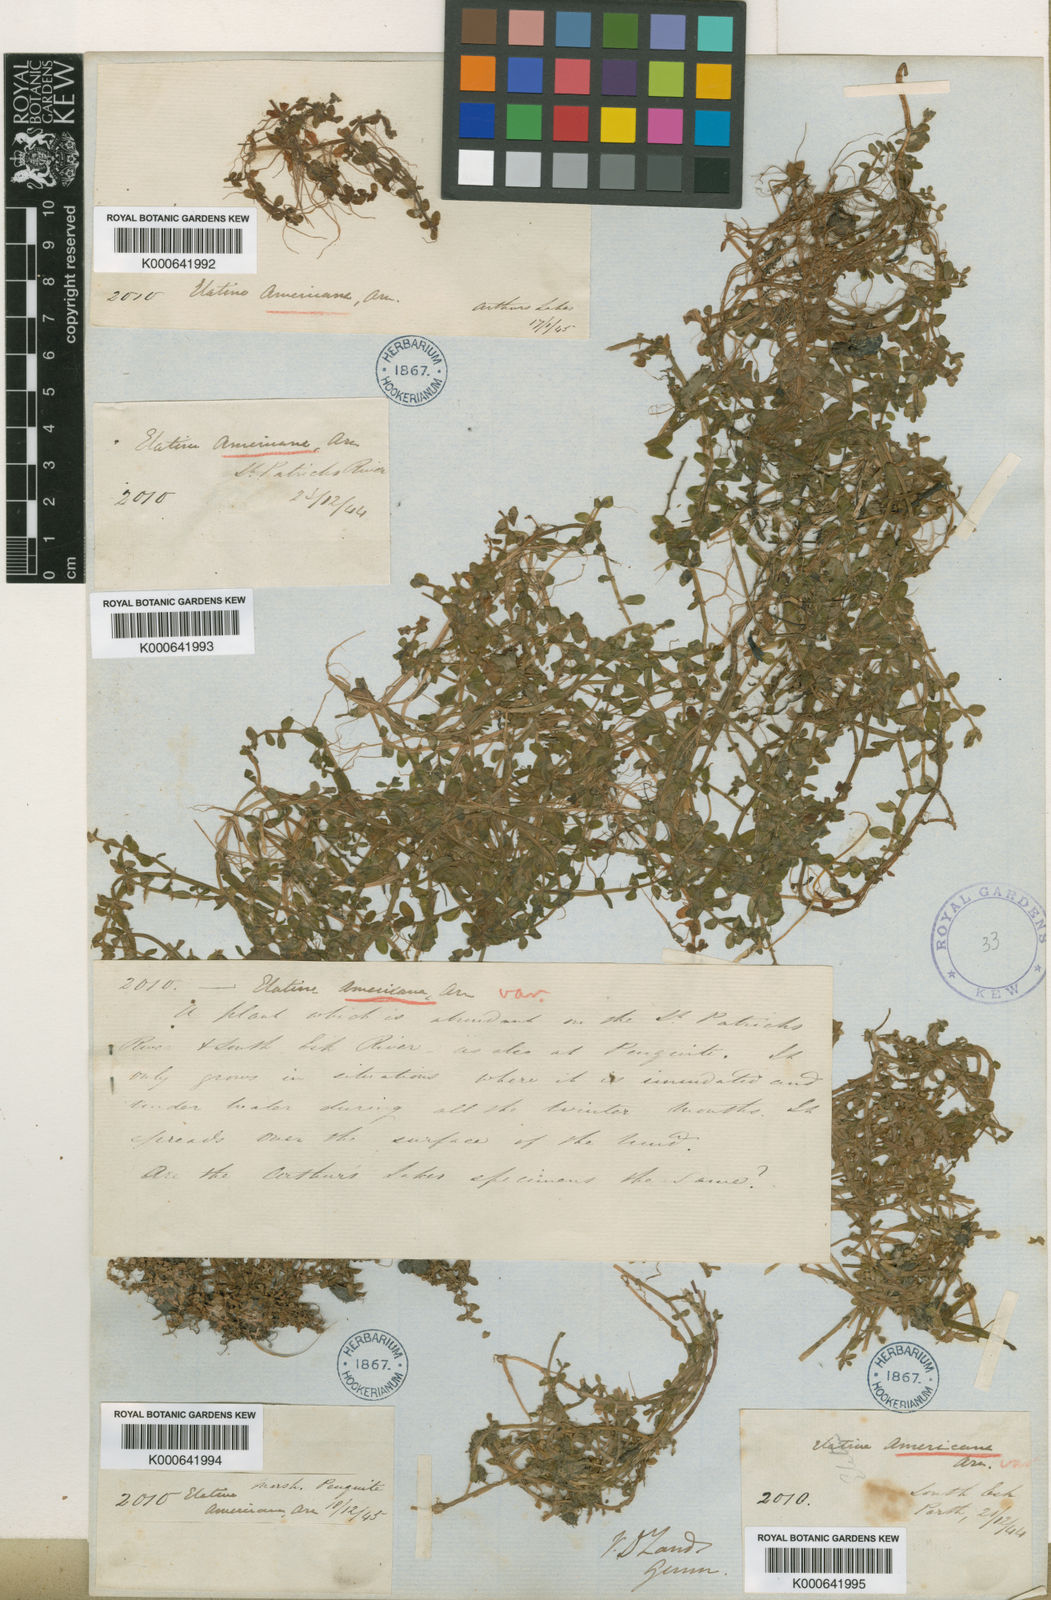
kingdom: Plantae
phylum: Tracheophyta
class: Magnoliopsida
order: Malpighiales
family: Elatinaceae
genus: Elatine
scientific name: Elatine gratioloides
